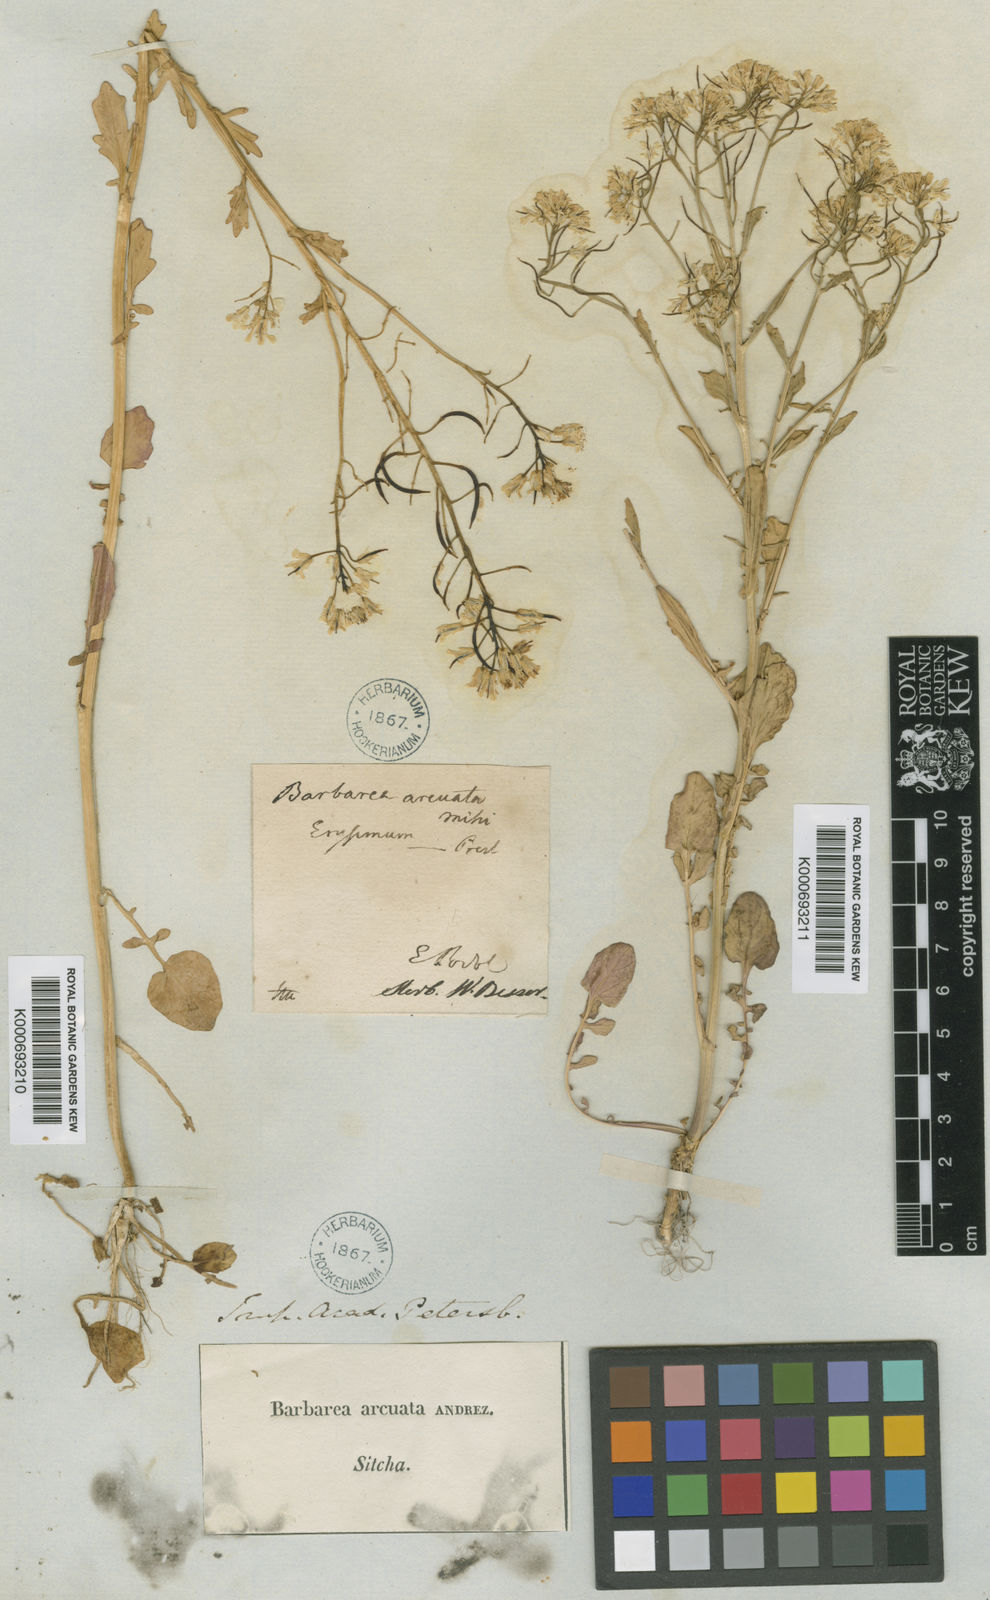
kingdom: Plantae
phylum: Tracheophyta
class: Magnoliopsida
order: Brassicales
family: Brassicaceae
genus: Barbarea
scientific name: Barbarea
